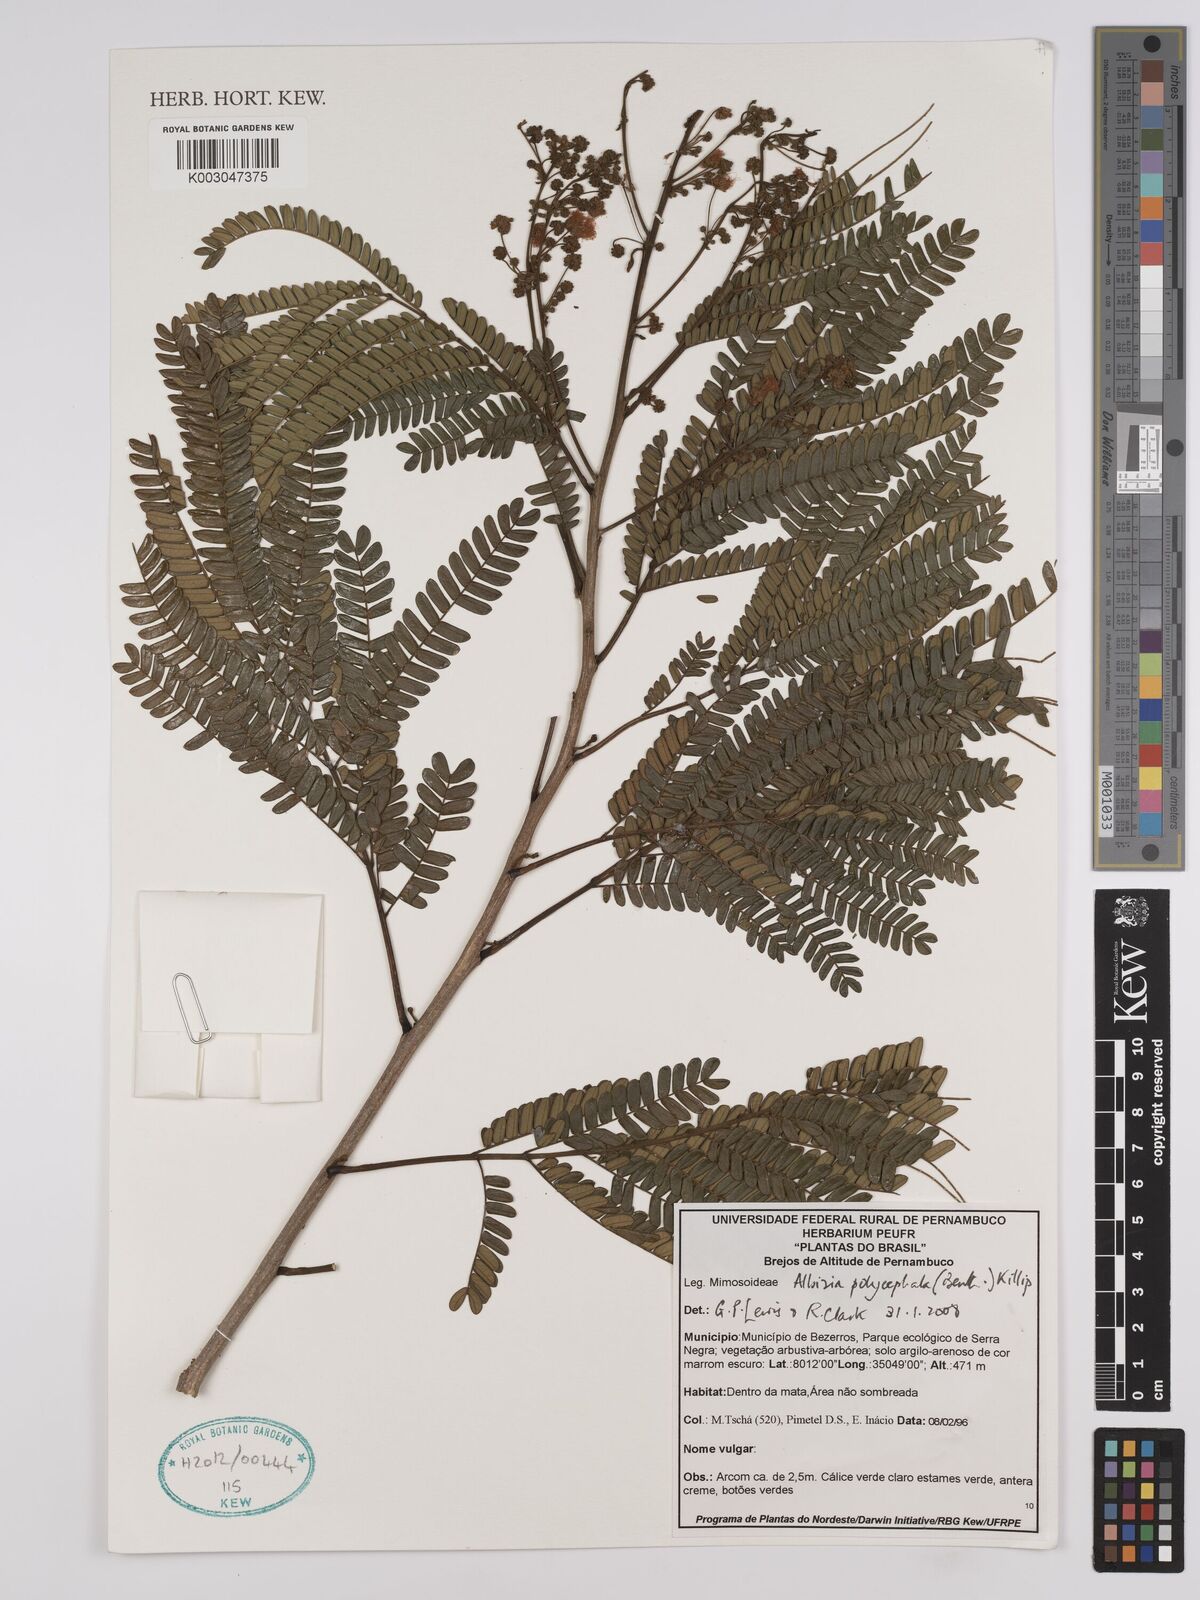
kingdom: Plantae
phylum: Tracheophyta
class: Magnoliopsida
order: Fabales
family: Fabaceae
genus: Albizia
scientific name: Albizia polycephala
